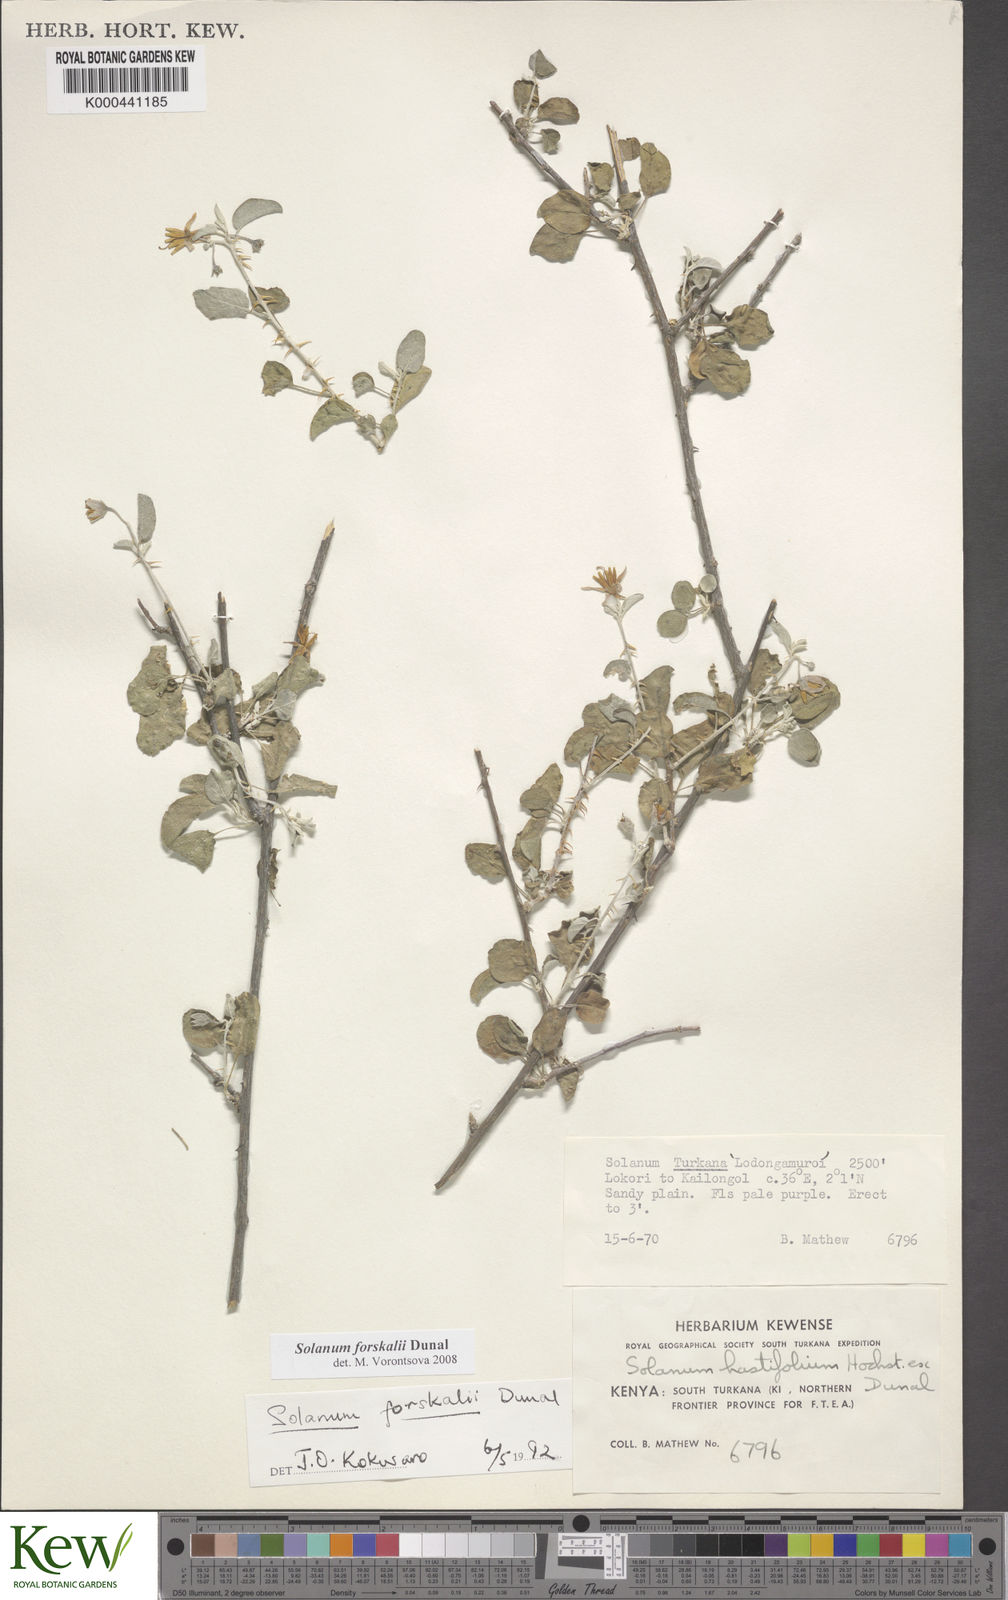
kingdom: Plantae
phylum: Tracheophyta
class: Magnoliopsida
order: Solanales
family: Solanaceae
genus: Solanum
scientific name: Solanum
